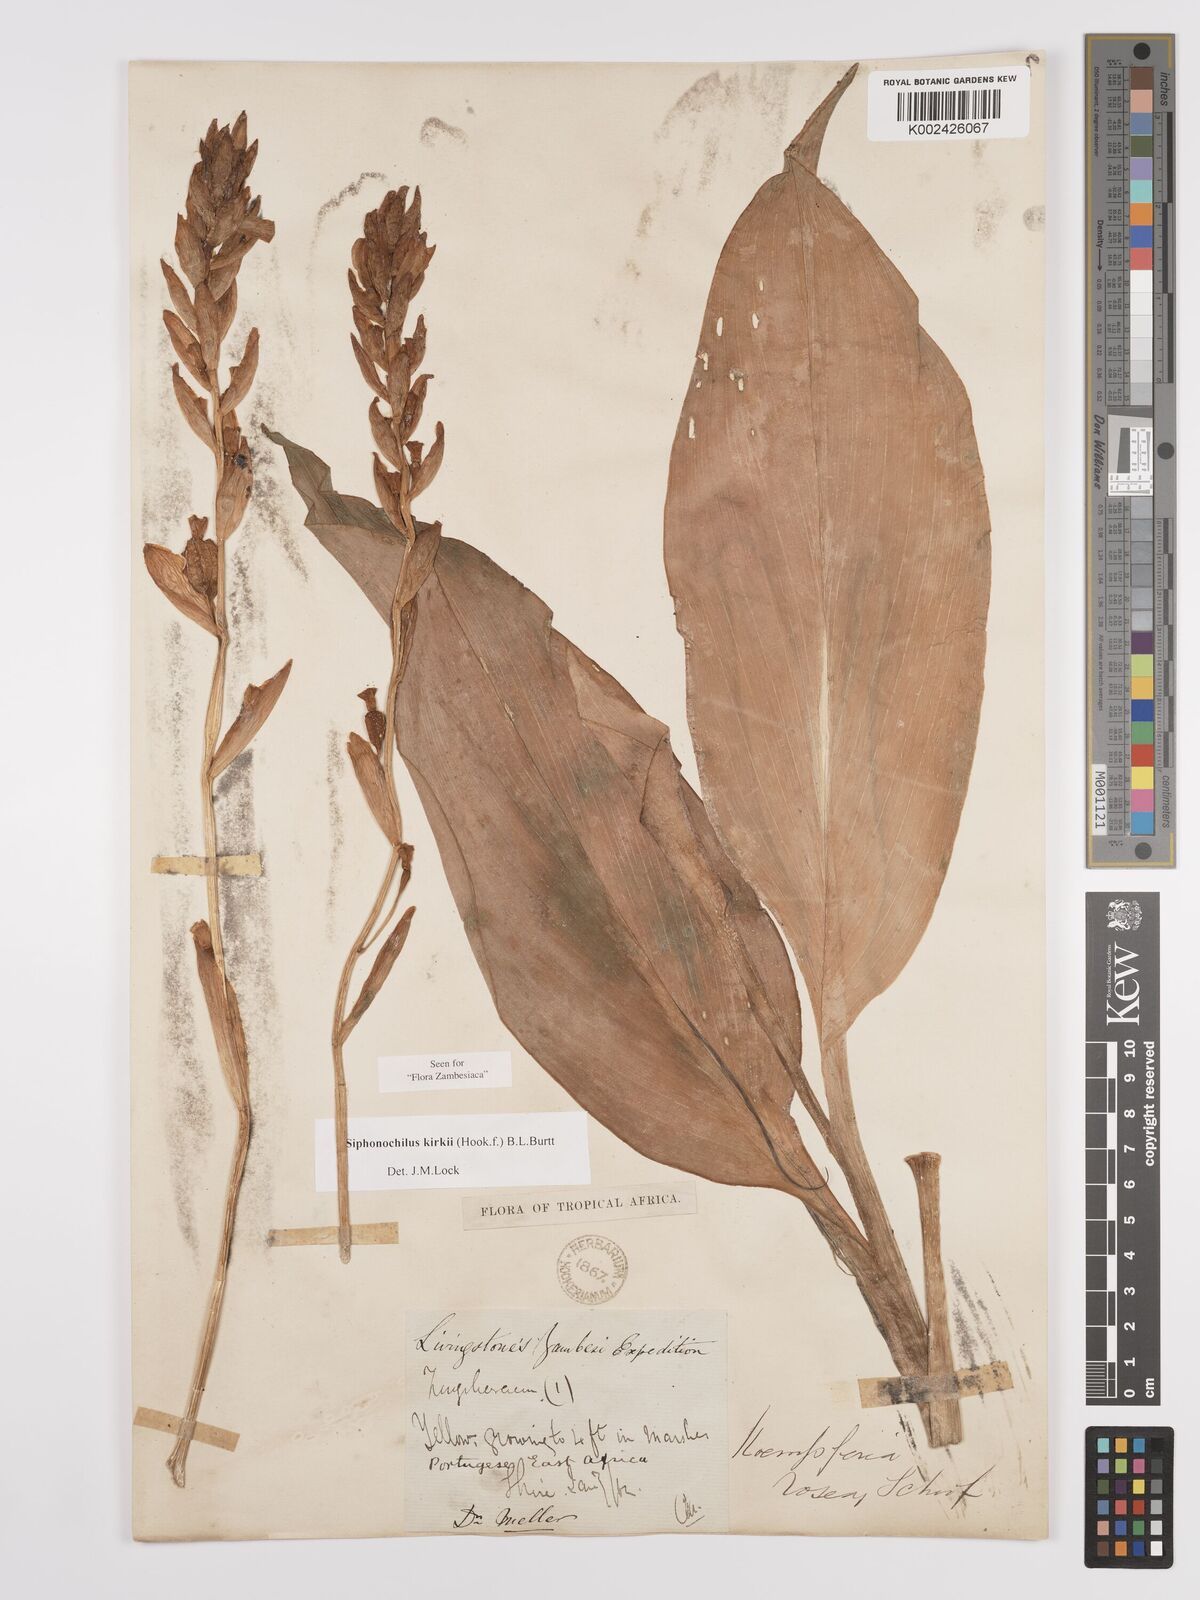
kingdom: Plantae
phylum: Tracheophyta
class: Liliopsida
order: Zingiberales
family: Zingiberaceae
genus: Siphonochilus
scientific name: Siphonochilus kirkii
